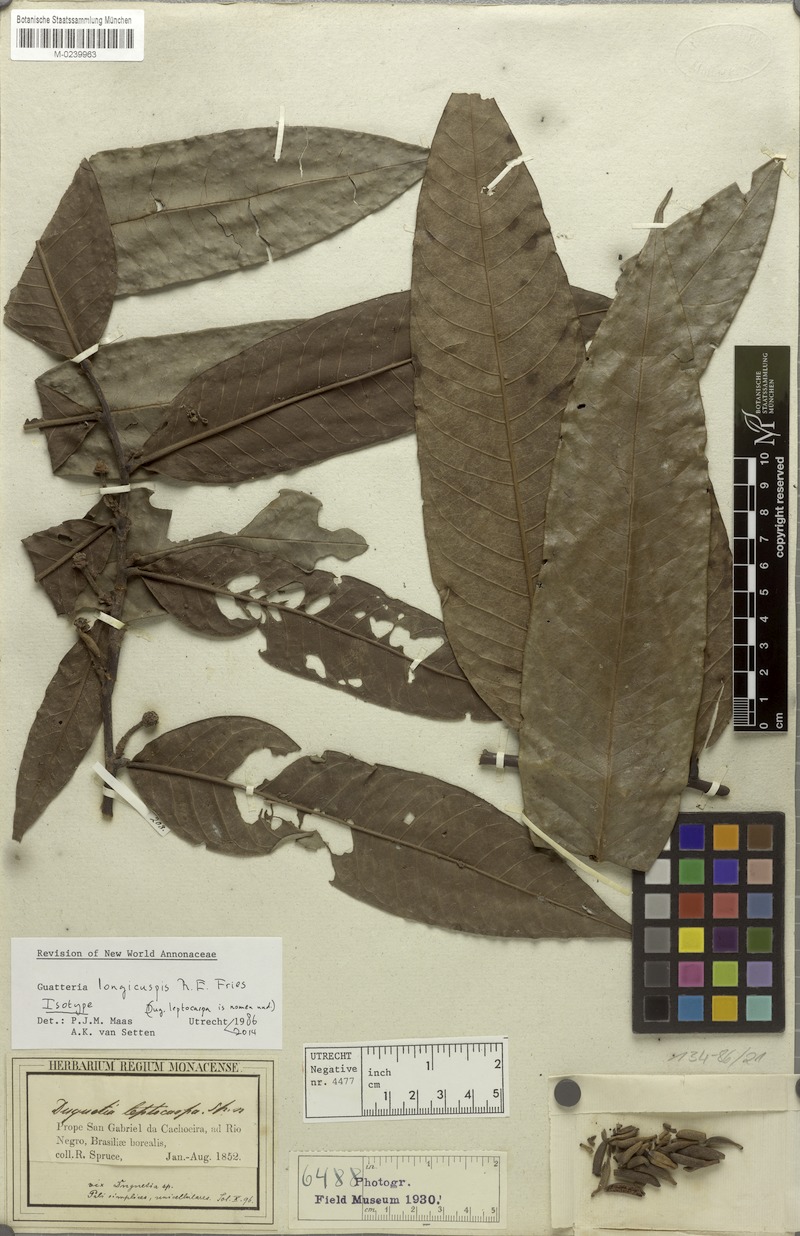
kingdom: Plantae
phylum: Tracheophyta
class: Magnoliopsida
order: Magnoliales
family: Annonaceae
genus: Guatteria
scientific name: Guatteria longicuspis
